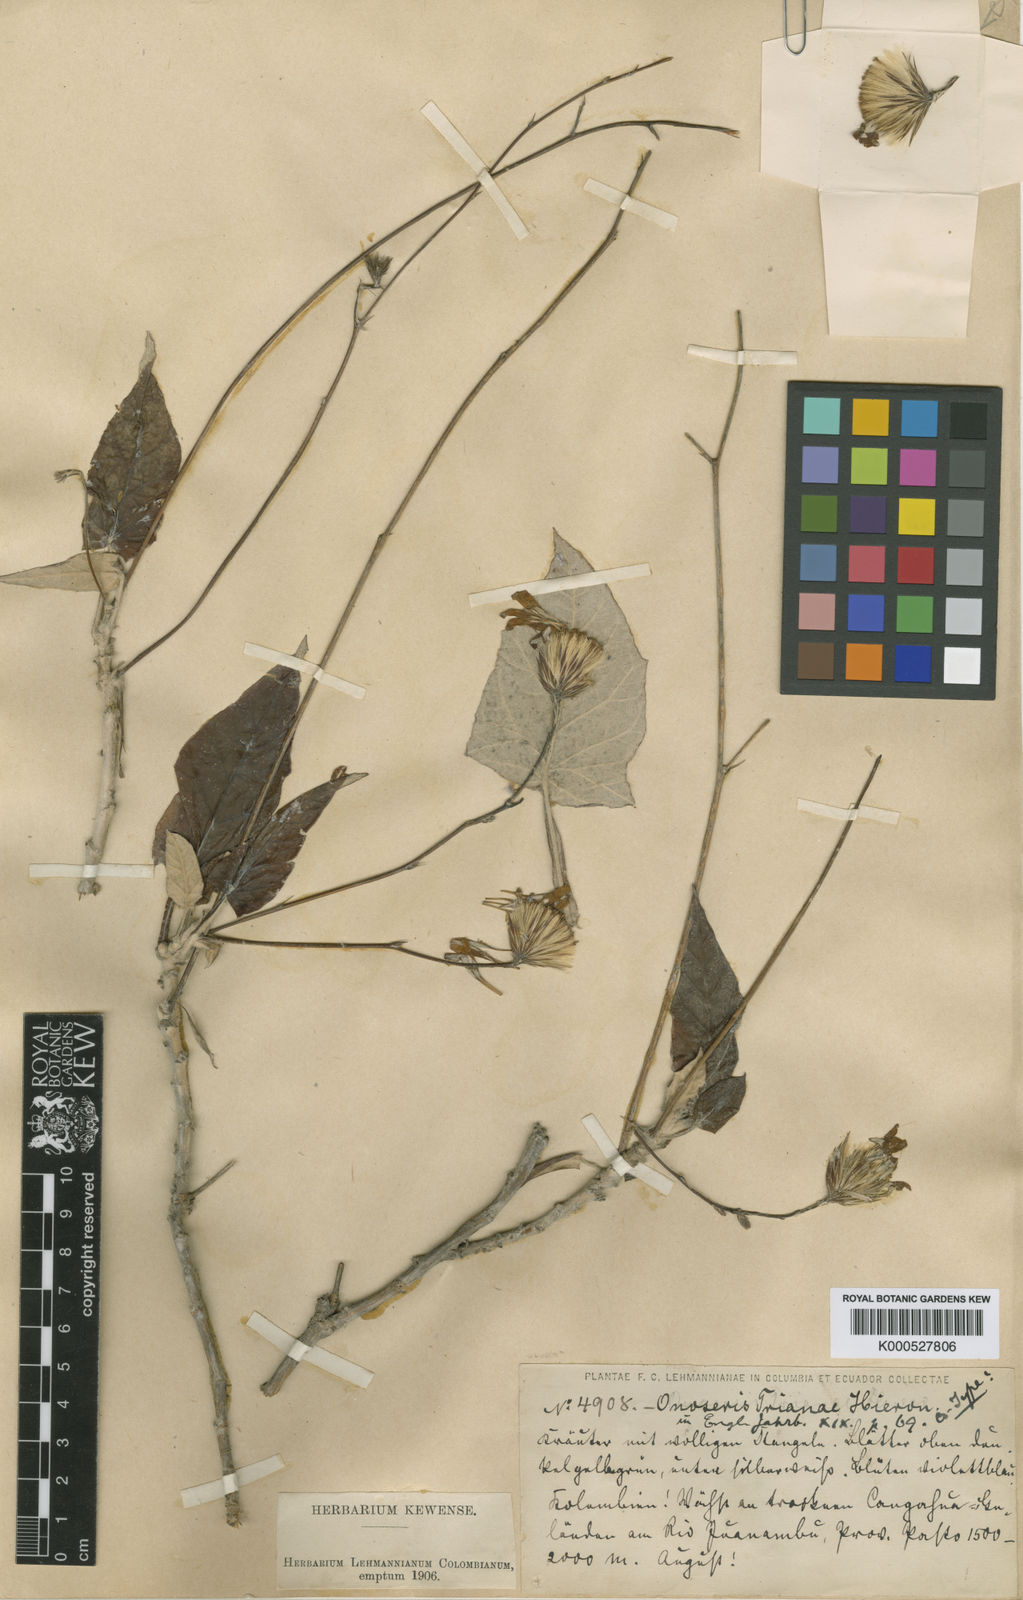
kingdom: Plantae
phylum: Tracheophyta
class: Magnoliopsida
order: Asterales
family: Asteraceae
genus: Onoseris
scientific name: Onoseris drakeana
